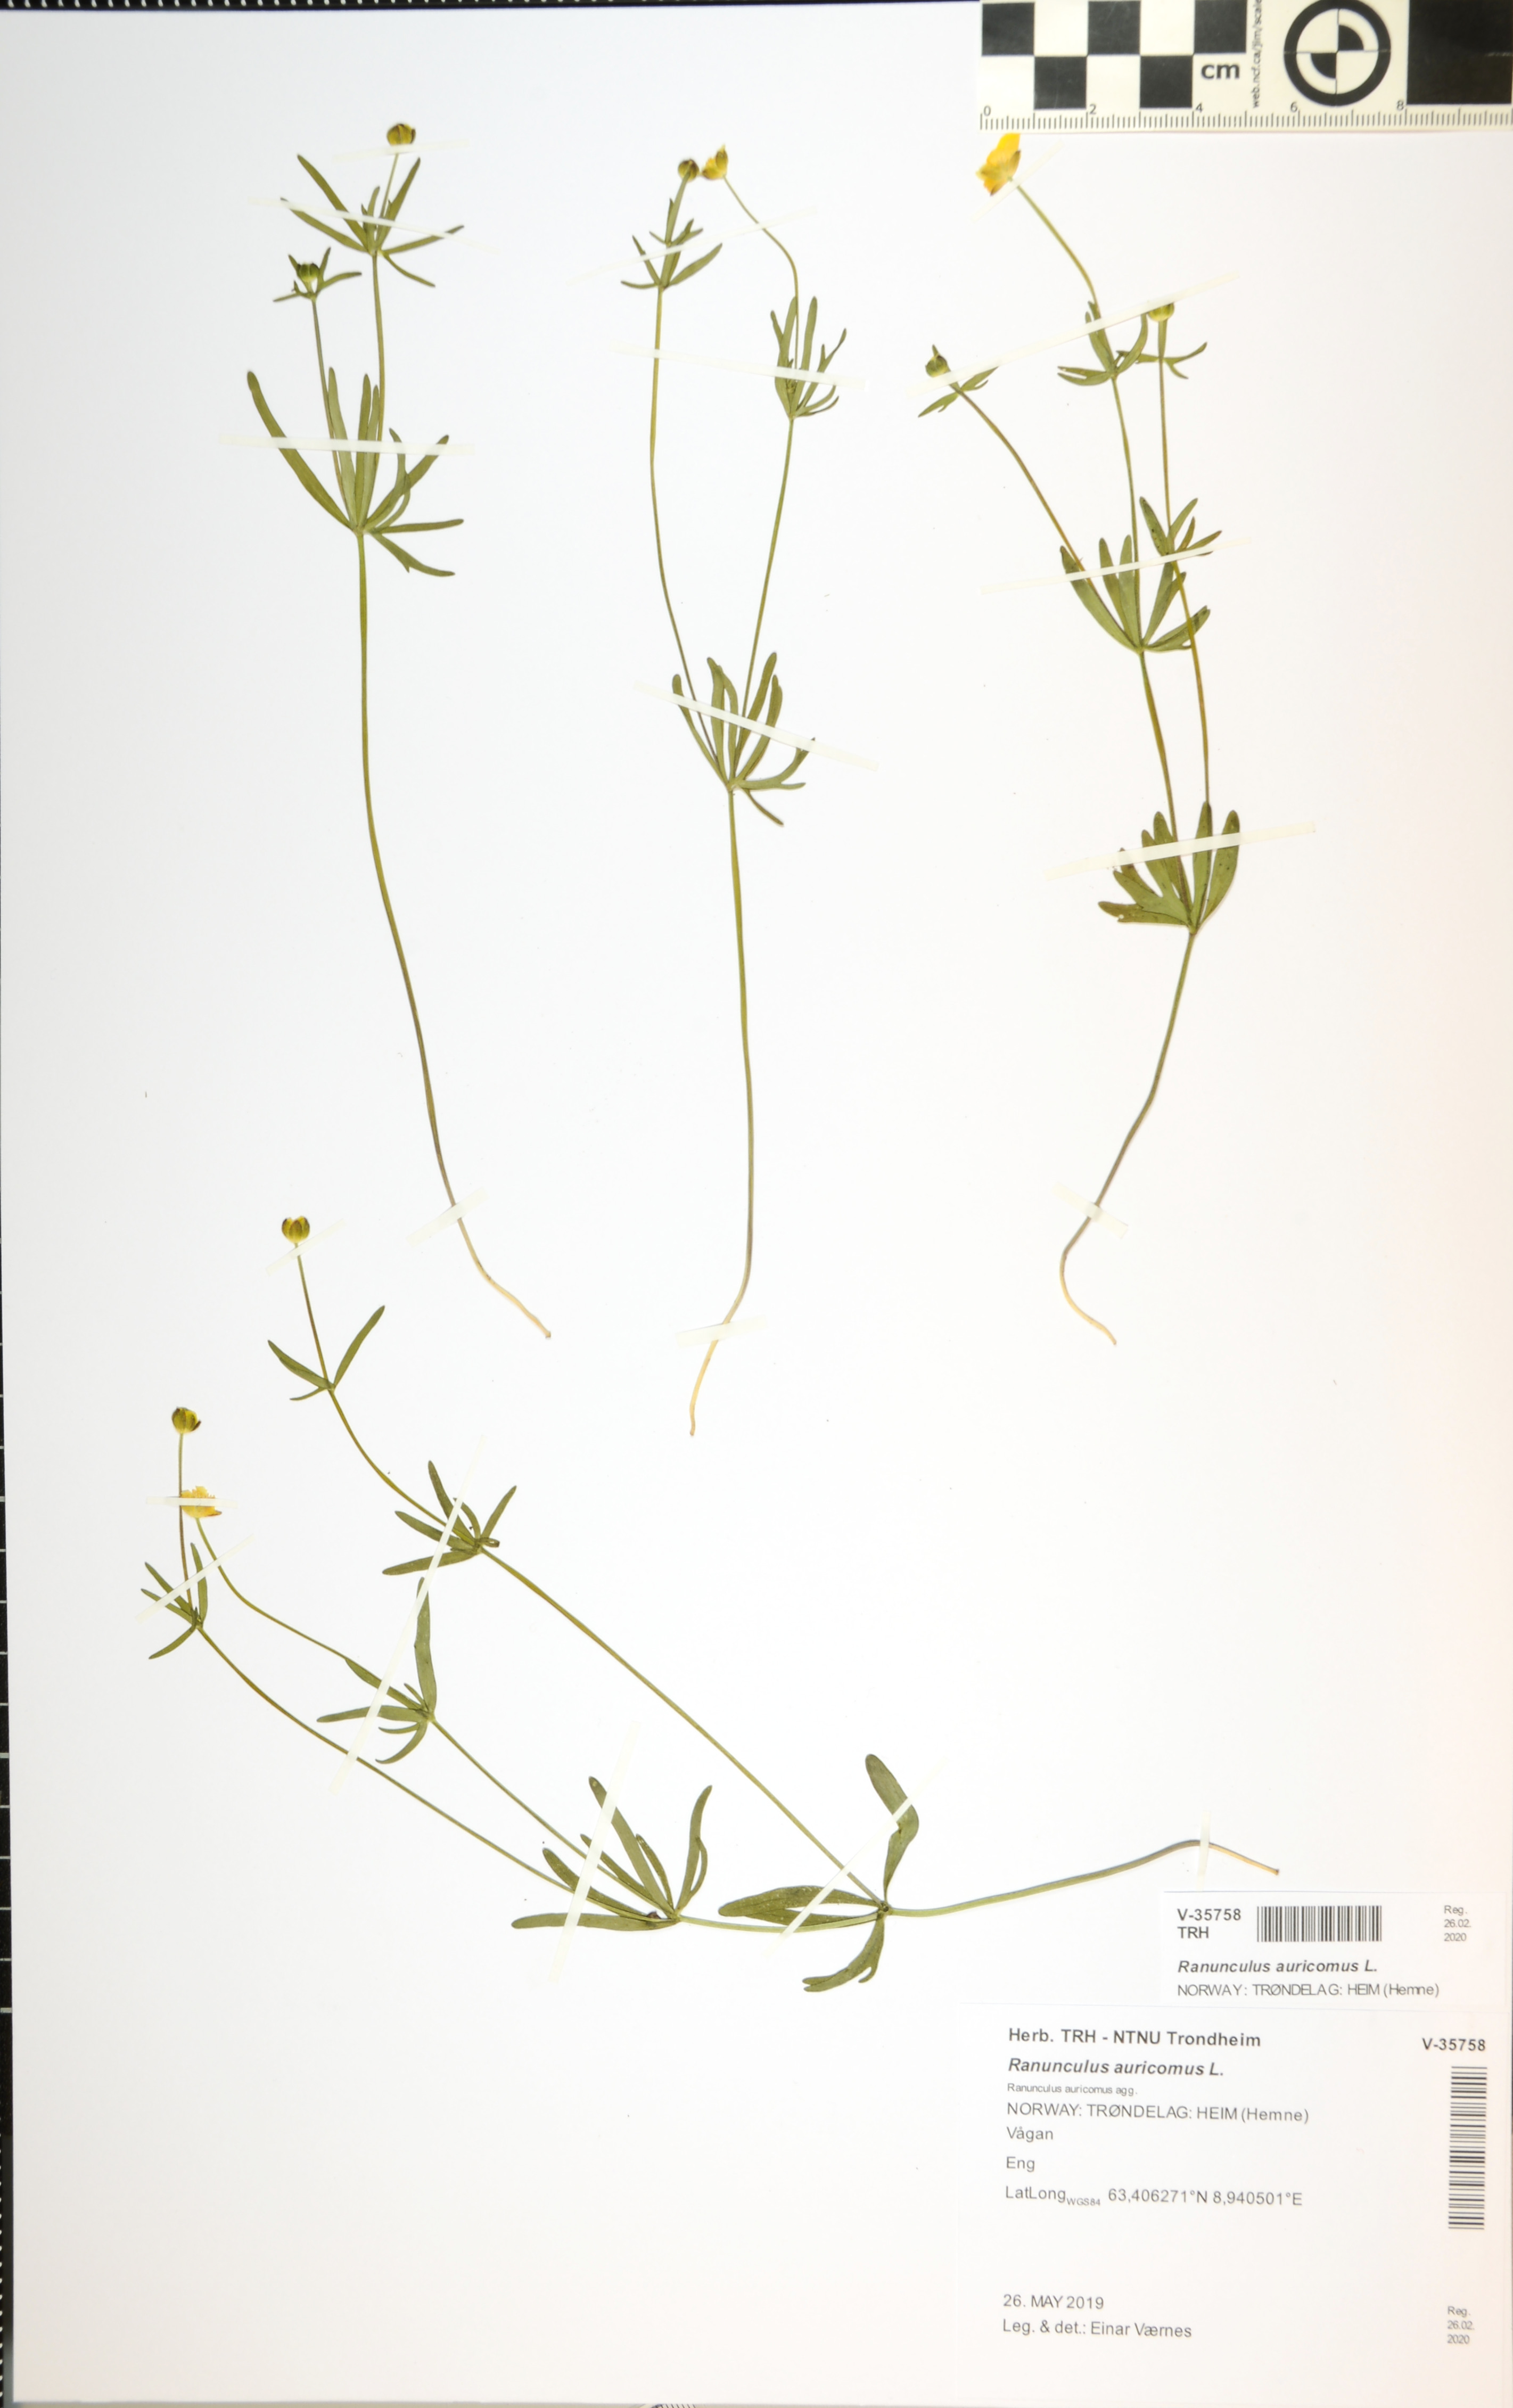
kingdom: Plantae
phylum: Tracheophyta
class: Magnoliopsida
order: Ranunculales
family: Ranunculaceae
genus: Ranunculus
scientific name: Ranunculus
